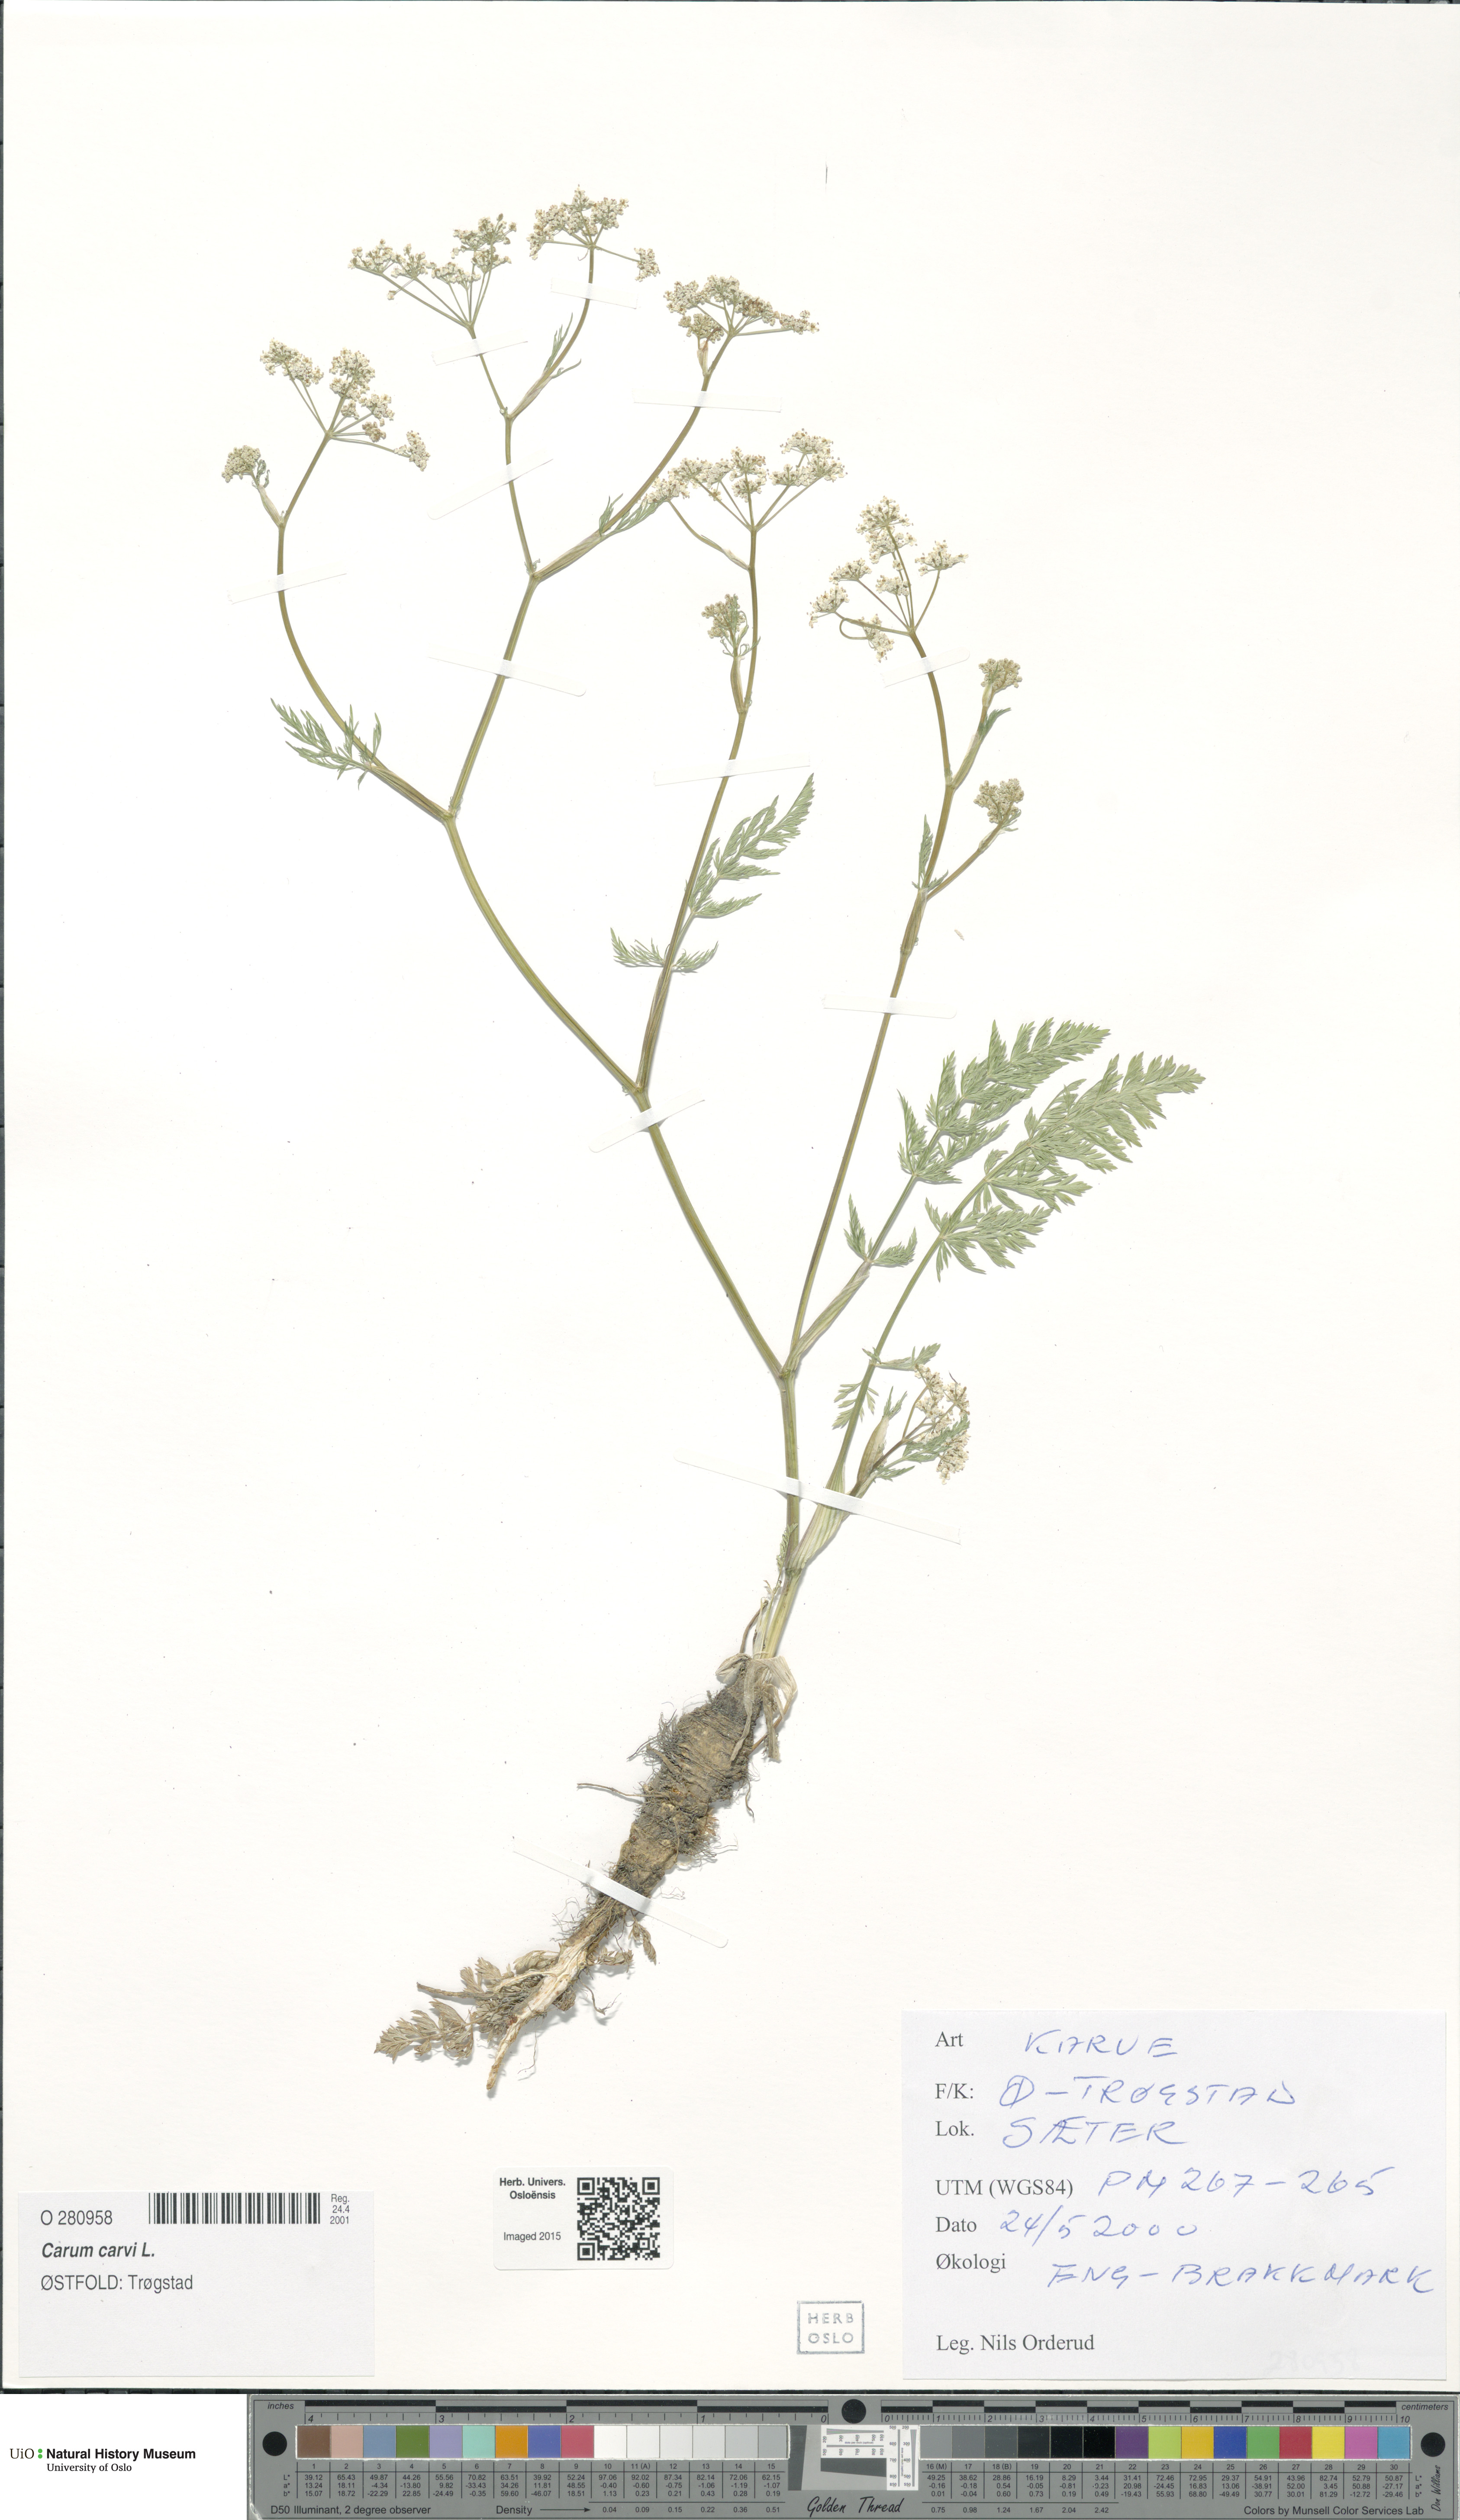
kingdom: Plantae
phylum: Tracheophyta
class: Magnoliopsida
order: Apiales
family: Apiaceae
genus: Carum
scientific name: Carum carvi
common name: Caraway
